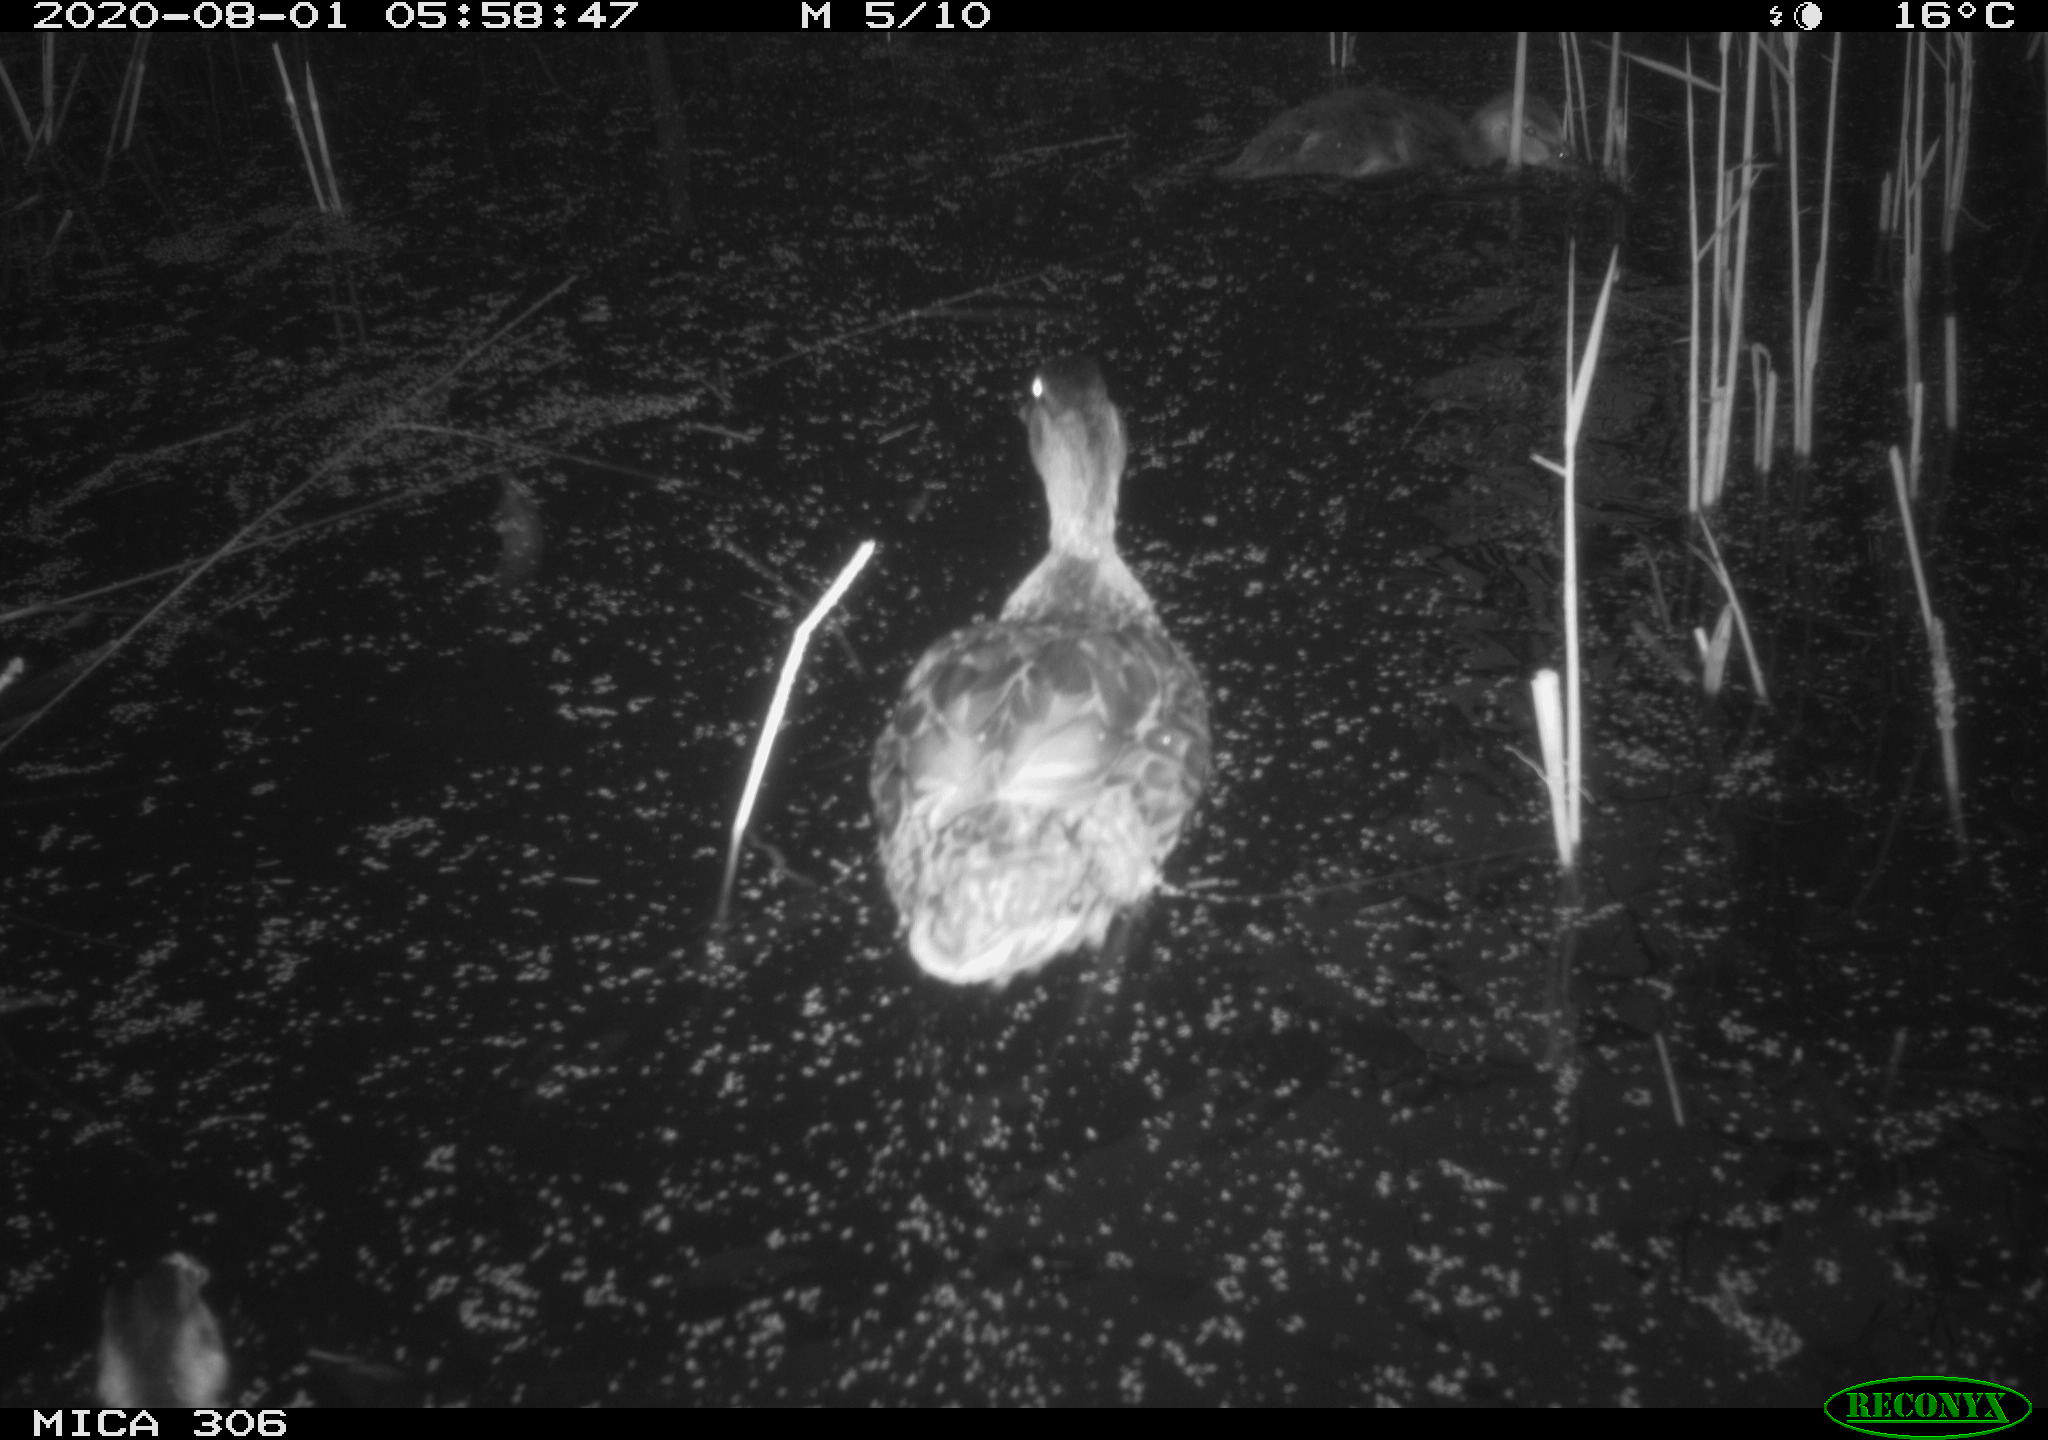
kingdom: Animalia
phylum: Chordata
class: Aves
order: Anseriformes
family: Anatidae
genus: Anas
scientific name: Anas platyrhynchos
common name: Mallard
